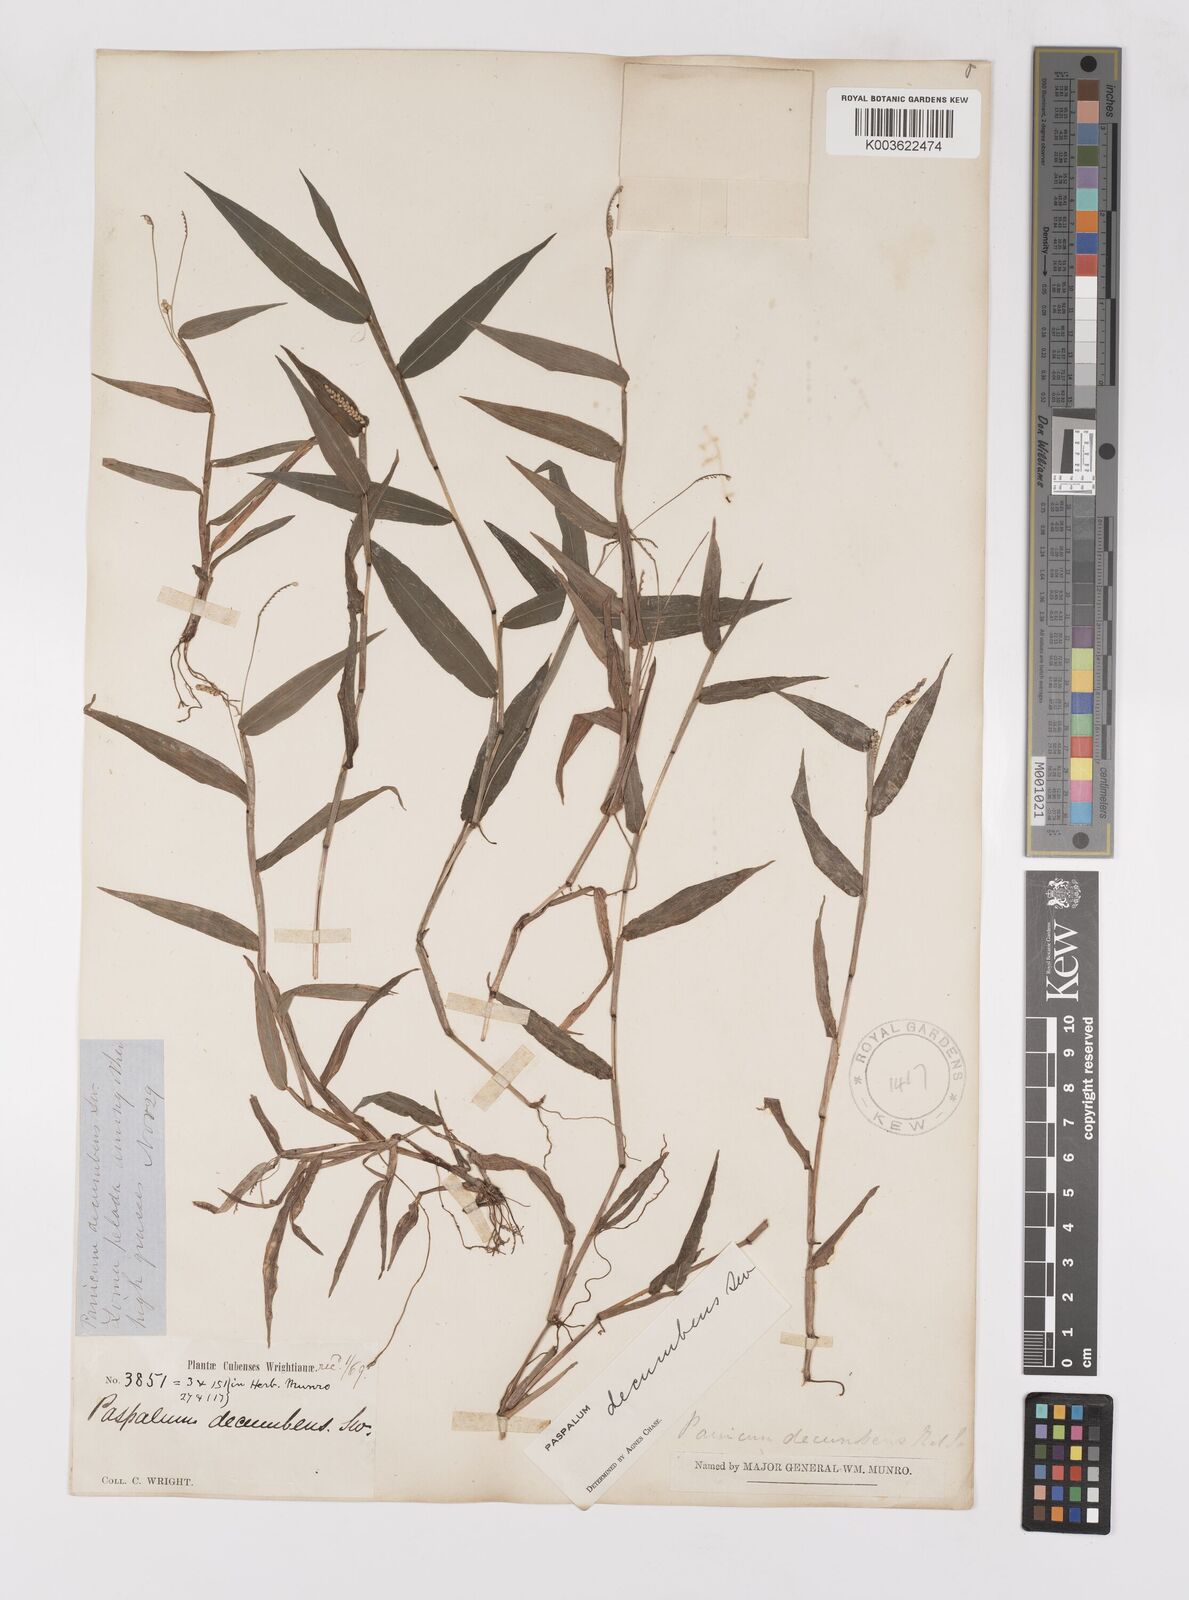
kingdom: Plantae
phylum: Tracheophyta
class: Liliopsida
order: Poales
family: Poaceae
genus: Paspalum
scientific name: Paspalum decumbens
